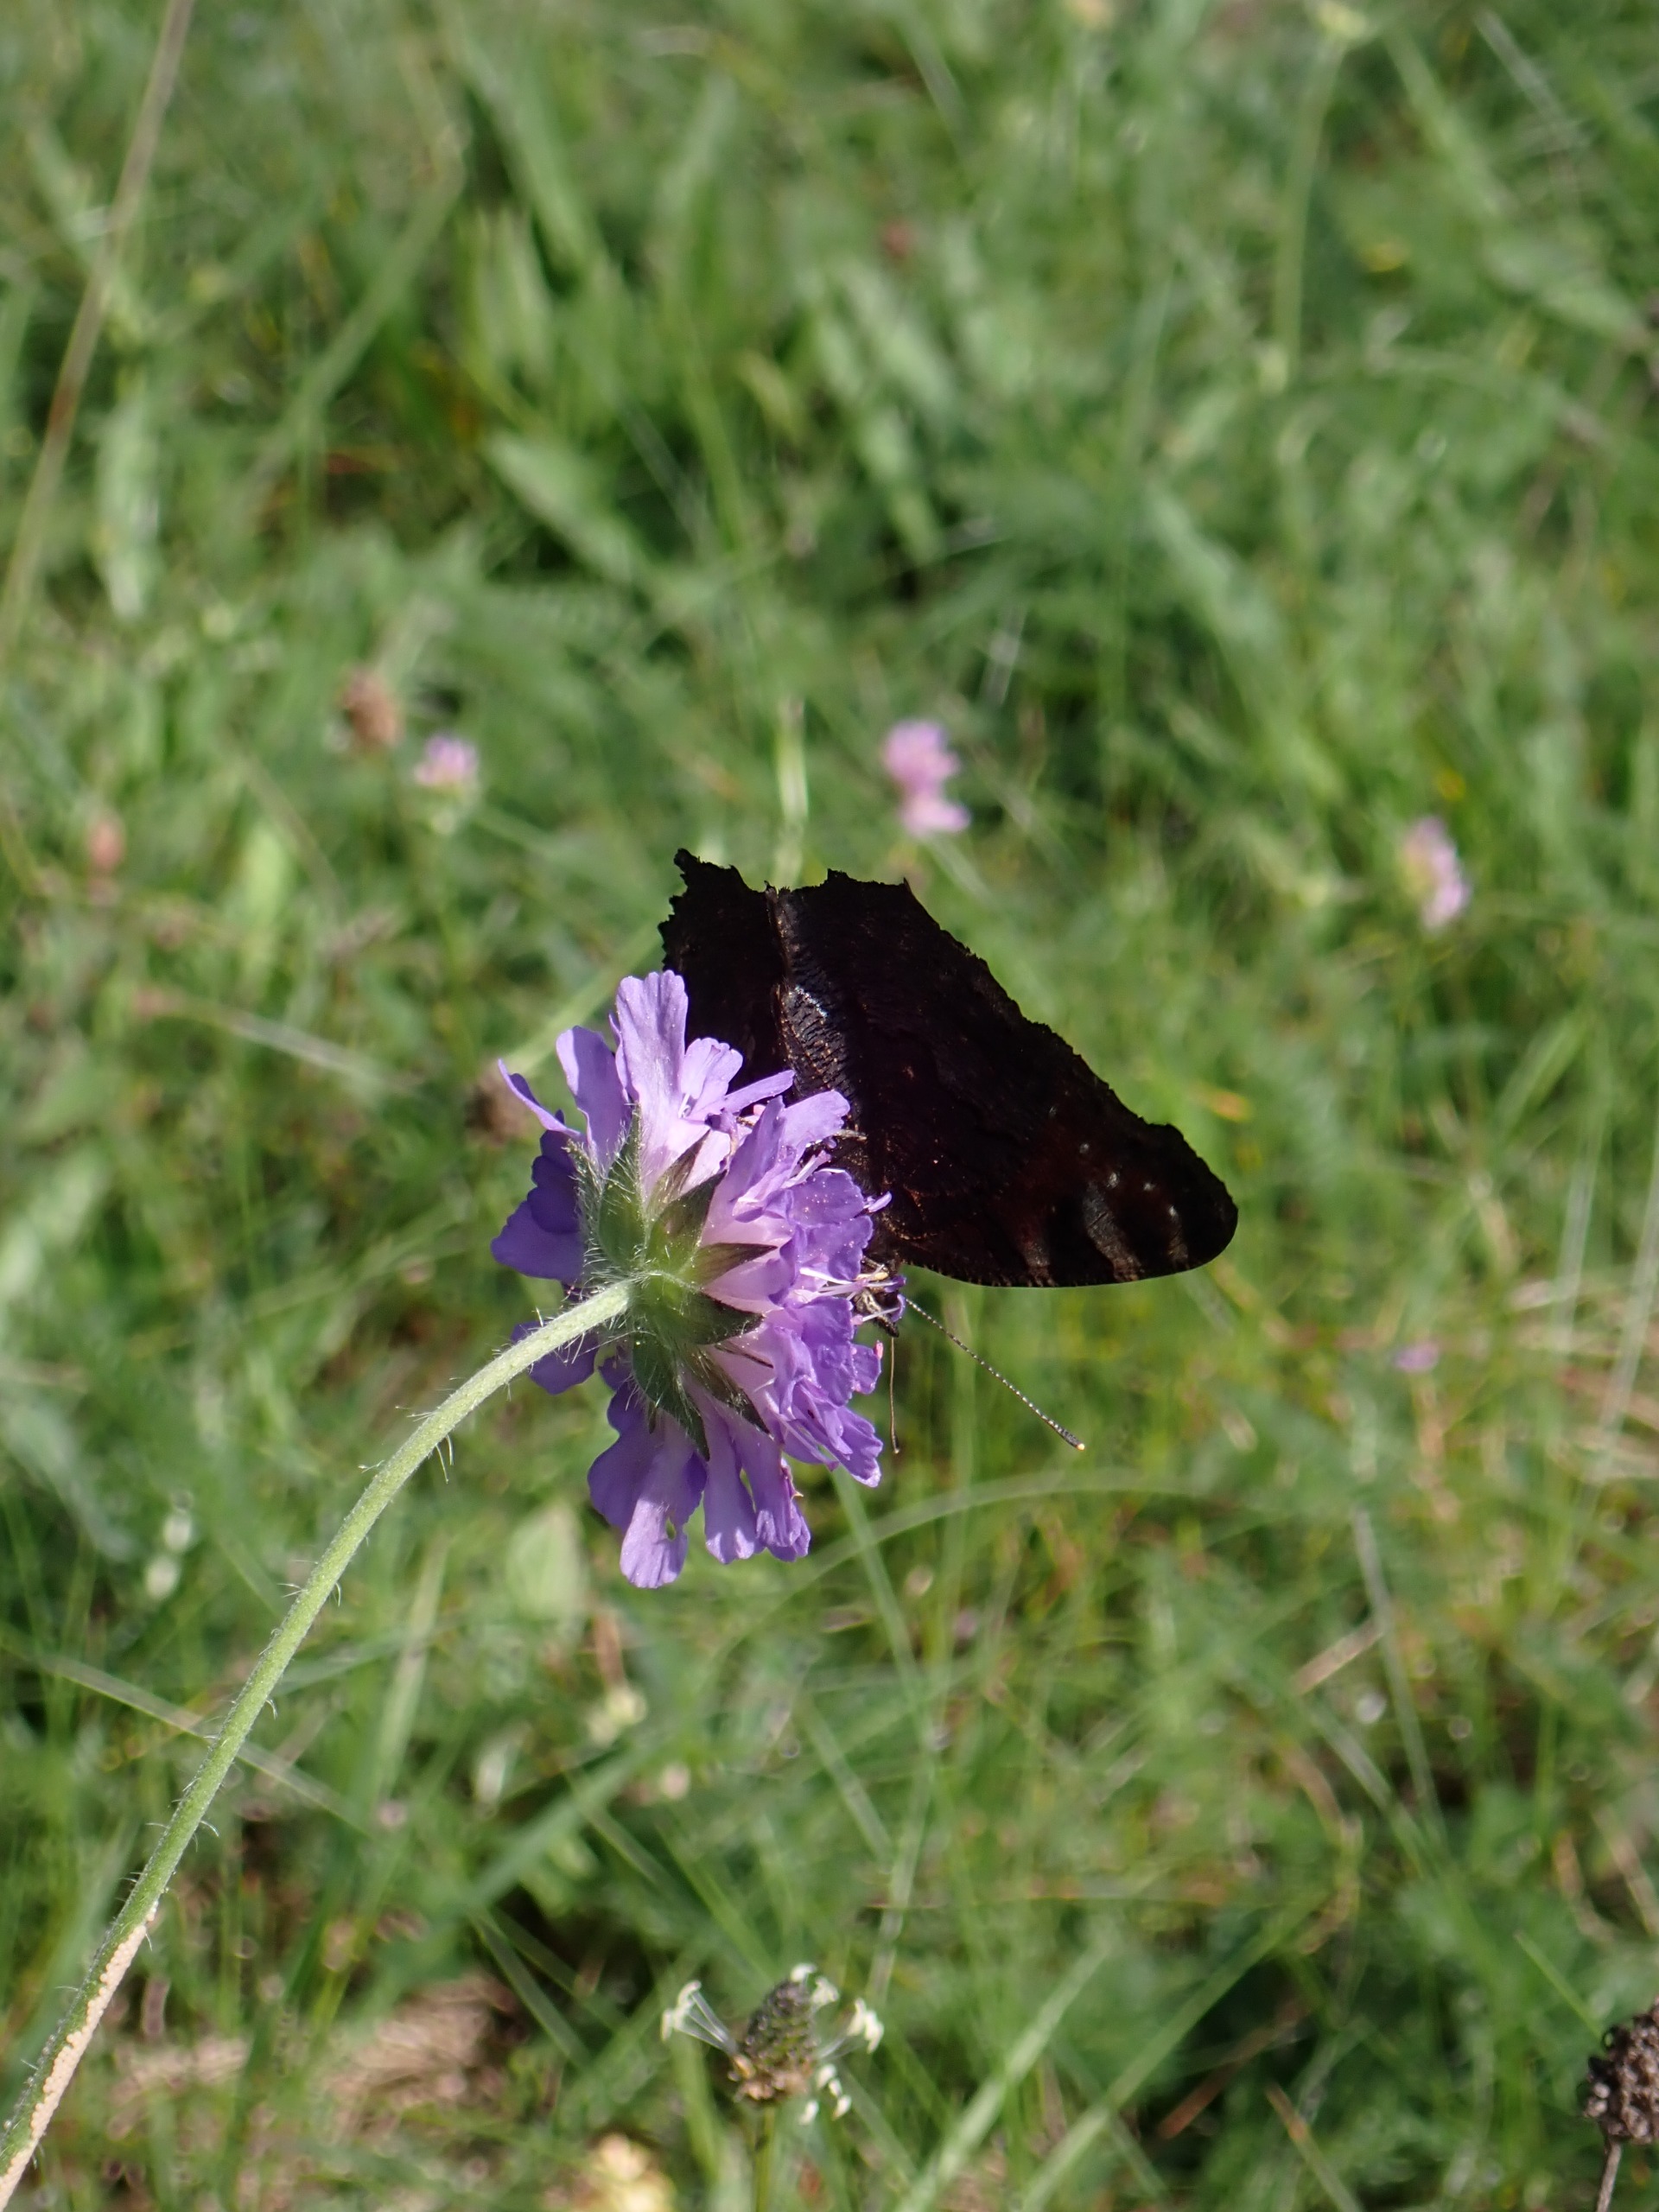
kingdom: Animalia
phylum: Arthropoda
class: Insecta
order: Lepidoptera
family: Nymphalidae
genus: Aglais
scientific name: Aglais io
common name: Dagpåfugleøje
